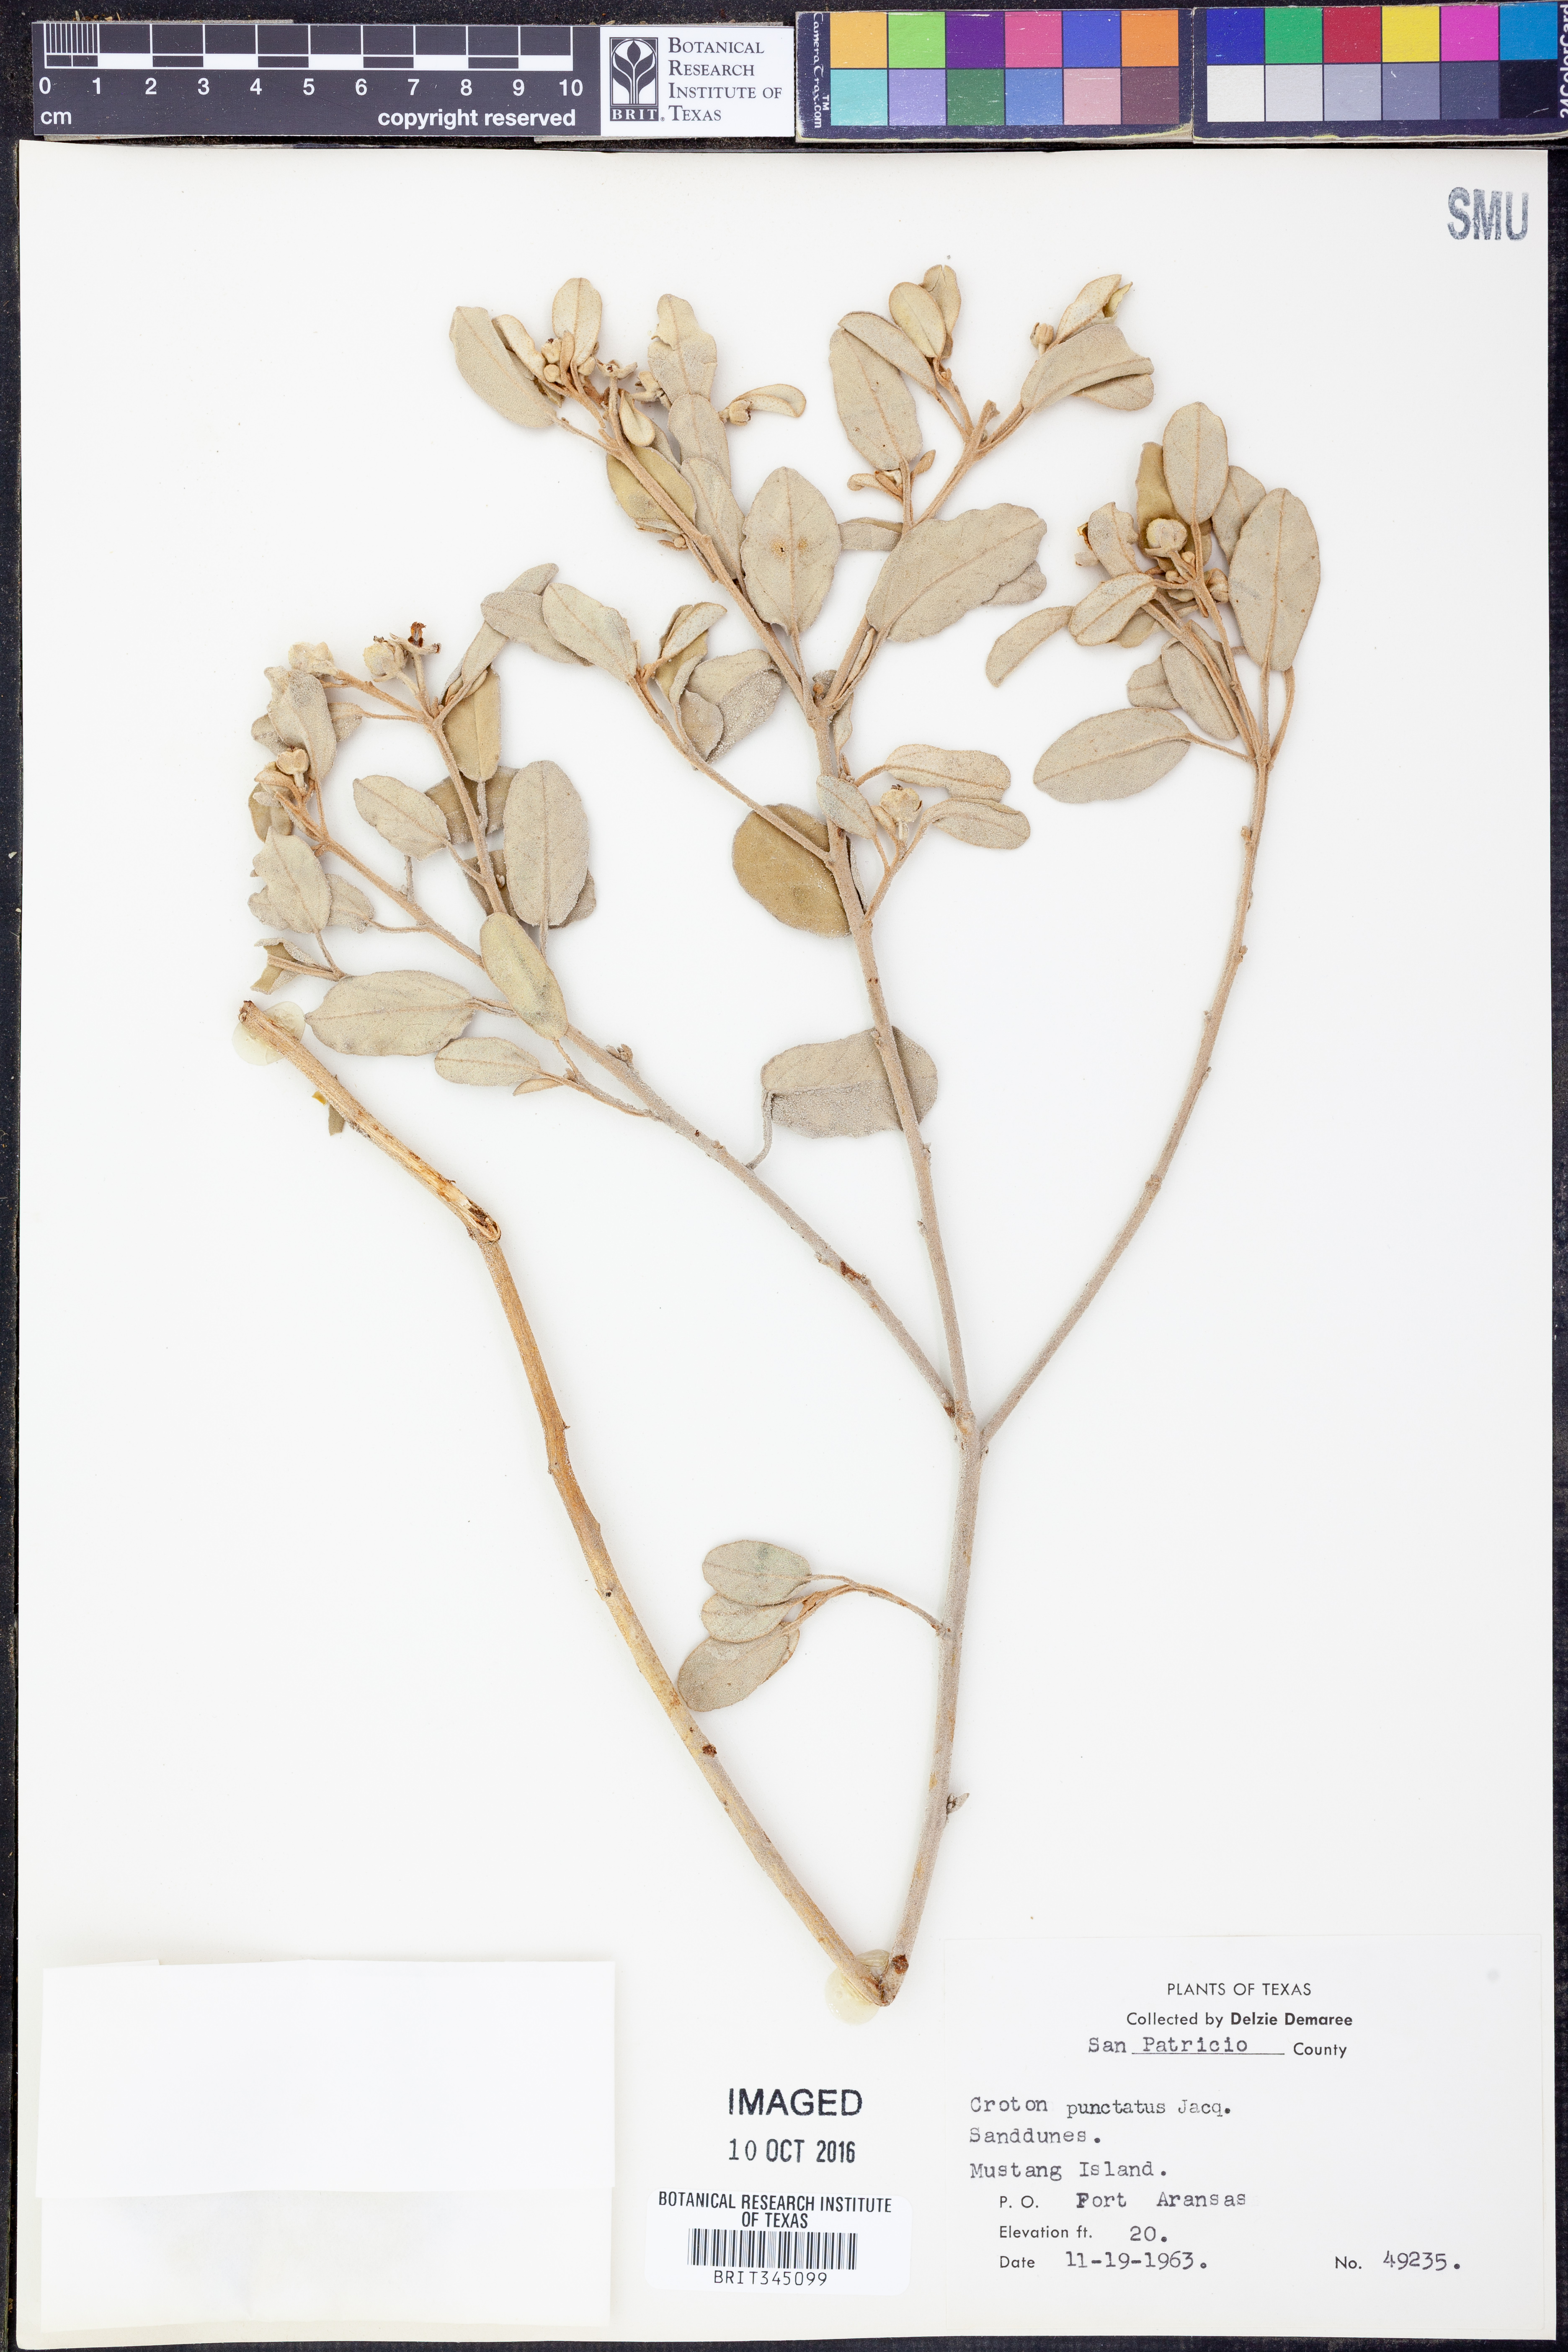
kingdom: Plantae
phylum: Tracheophyta
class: Magnoliopsida
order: Malpighiales
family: Euphorbiaceae
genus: Croton
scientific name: Croton punctatus
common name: Beach-tea
